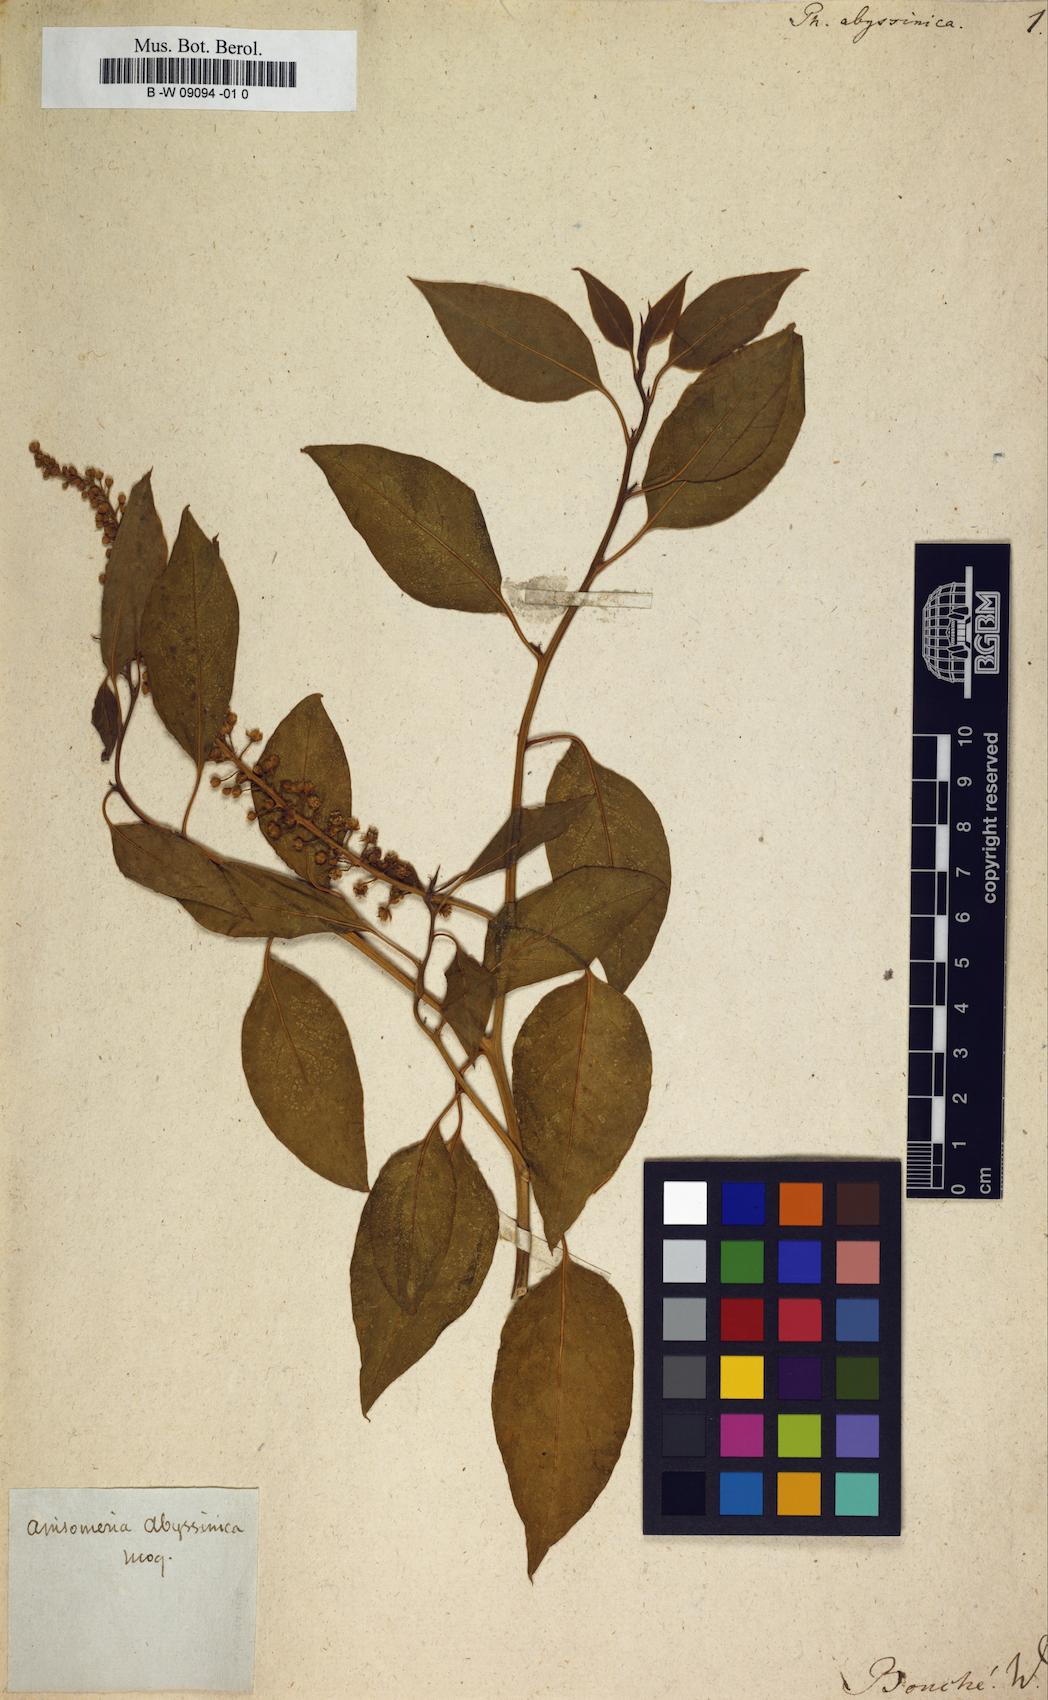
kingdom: Plantae
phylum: Tracheophyta
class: Magnoliopsida
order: Caryophyllales
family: Phytolaccaceae
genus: Phytolacca
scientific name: Phytolacca dodecandra
